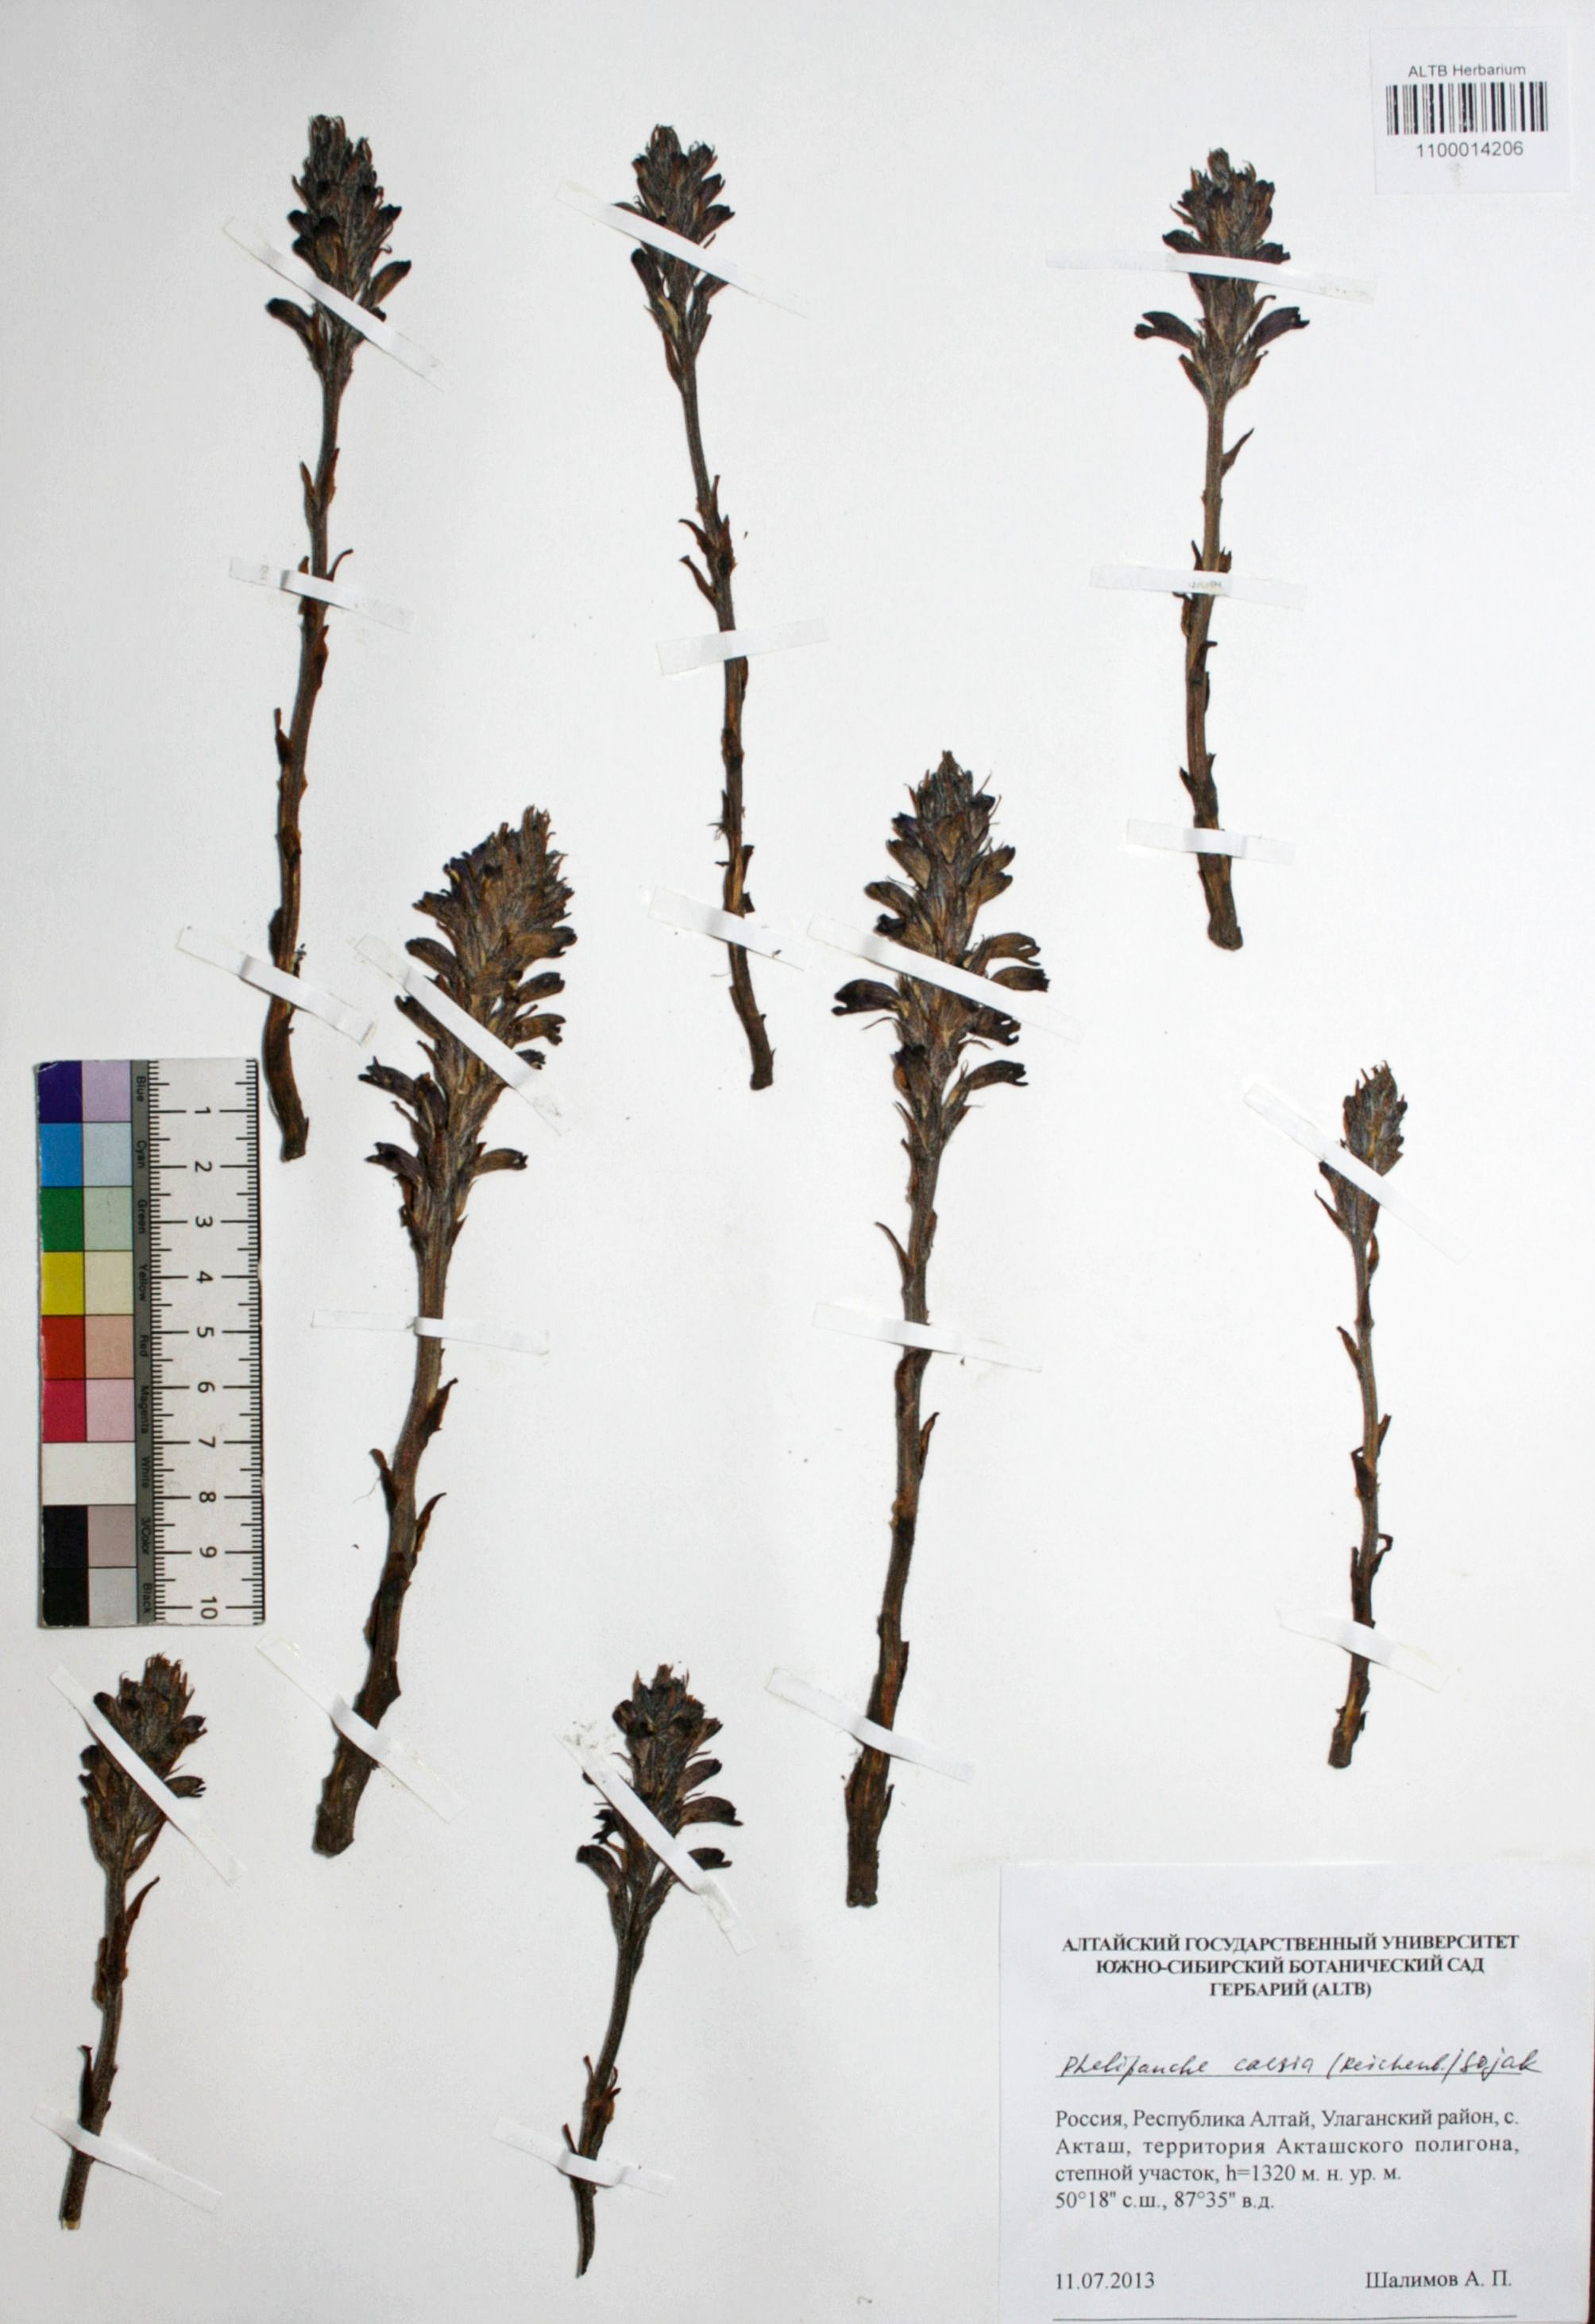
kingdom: Plantae
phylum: Tracheophyta
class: Magnoliopsida
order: Lamiales
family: Orobanchaceae
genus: Phelipanche
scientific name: Phelipanche caesia
